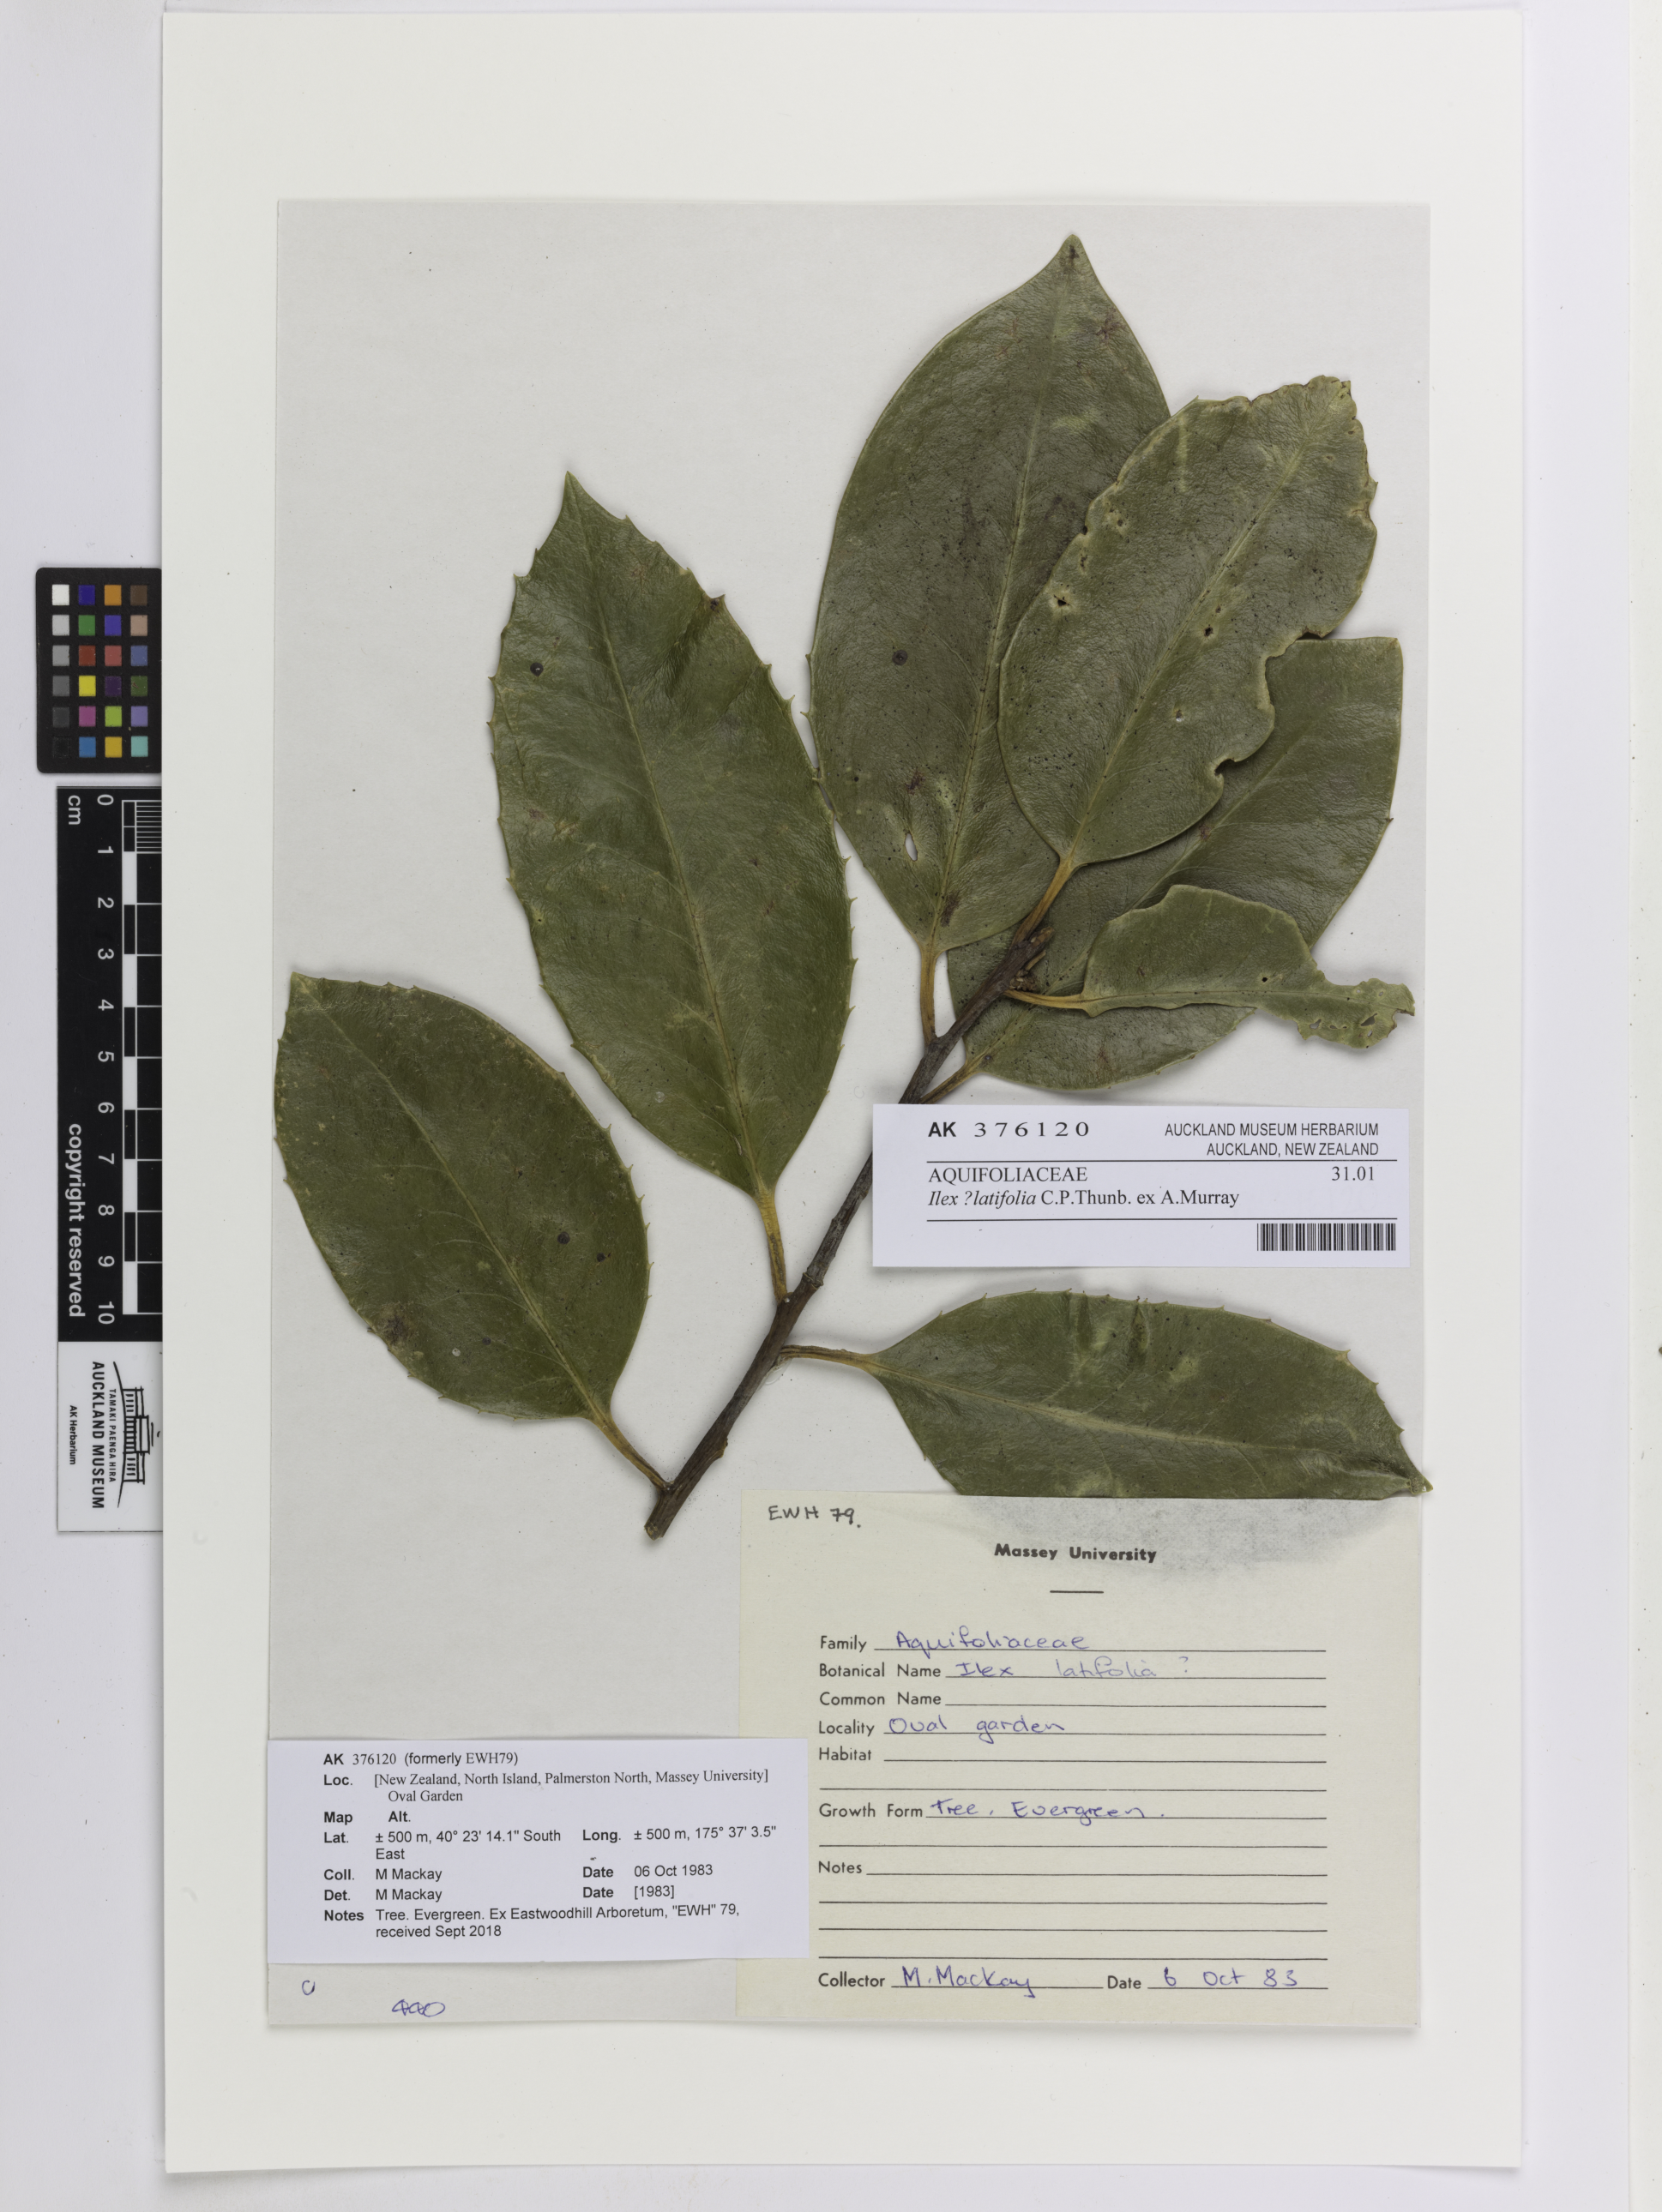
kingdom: Plantae
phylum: Tracheophyta
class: Magnoliopsida
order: Aquifoliales
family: Aquifoliaceae
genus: Ilex
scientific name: Ilex perado
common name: Madeira holly
